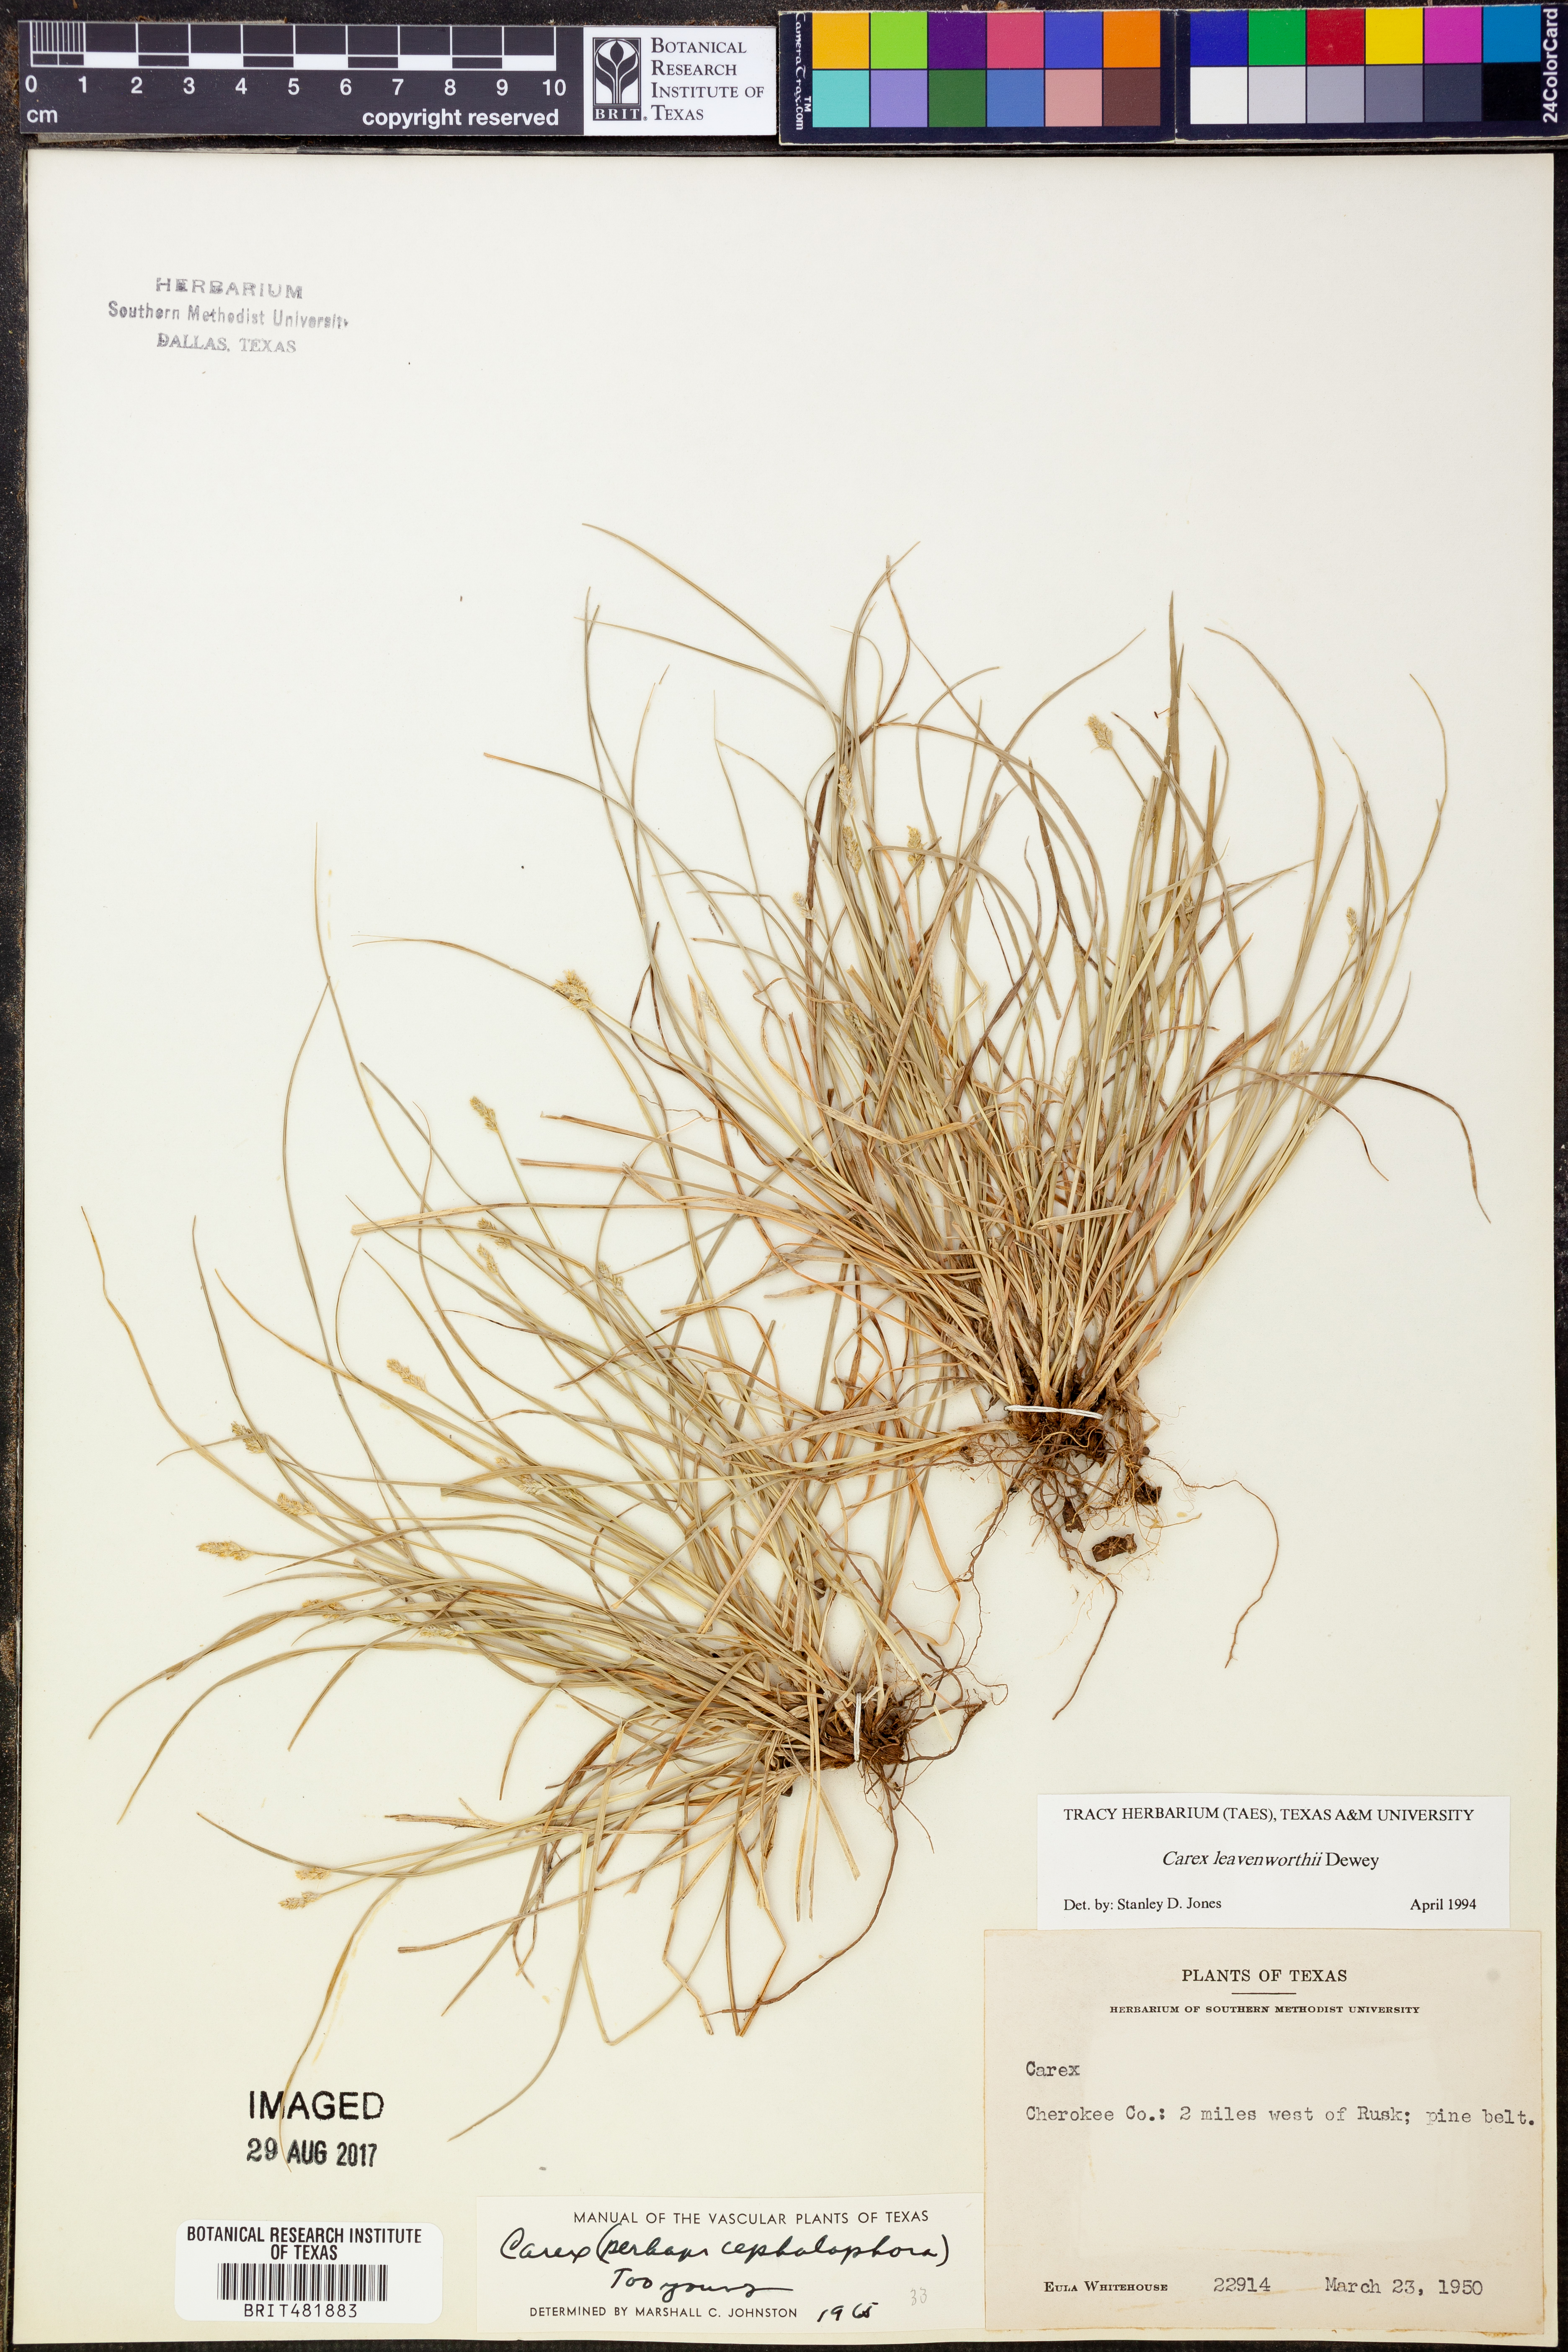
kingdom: Plantae
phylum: Tracheophyta
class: Liliopsida
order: Poales
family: Cyperaceae
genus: Carex
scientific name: Carex leavenworthii
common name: Leavenworth's bracted sedge
